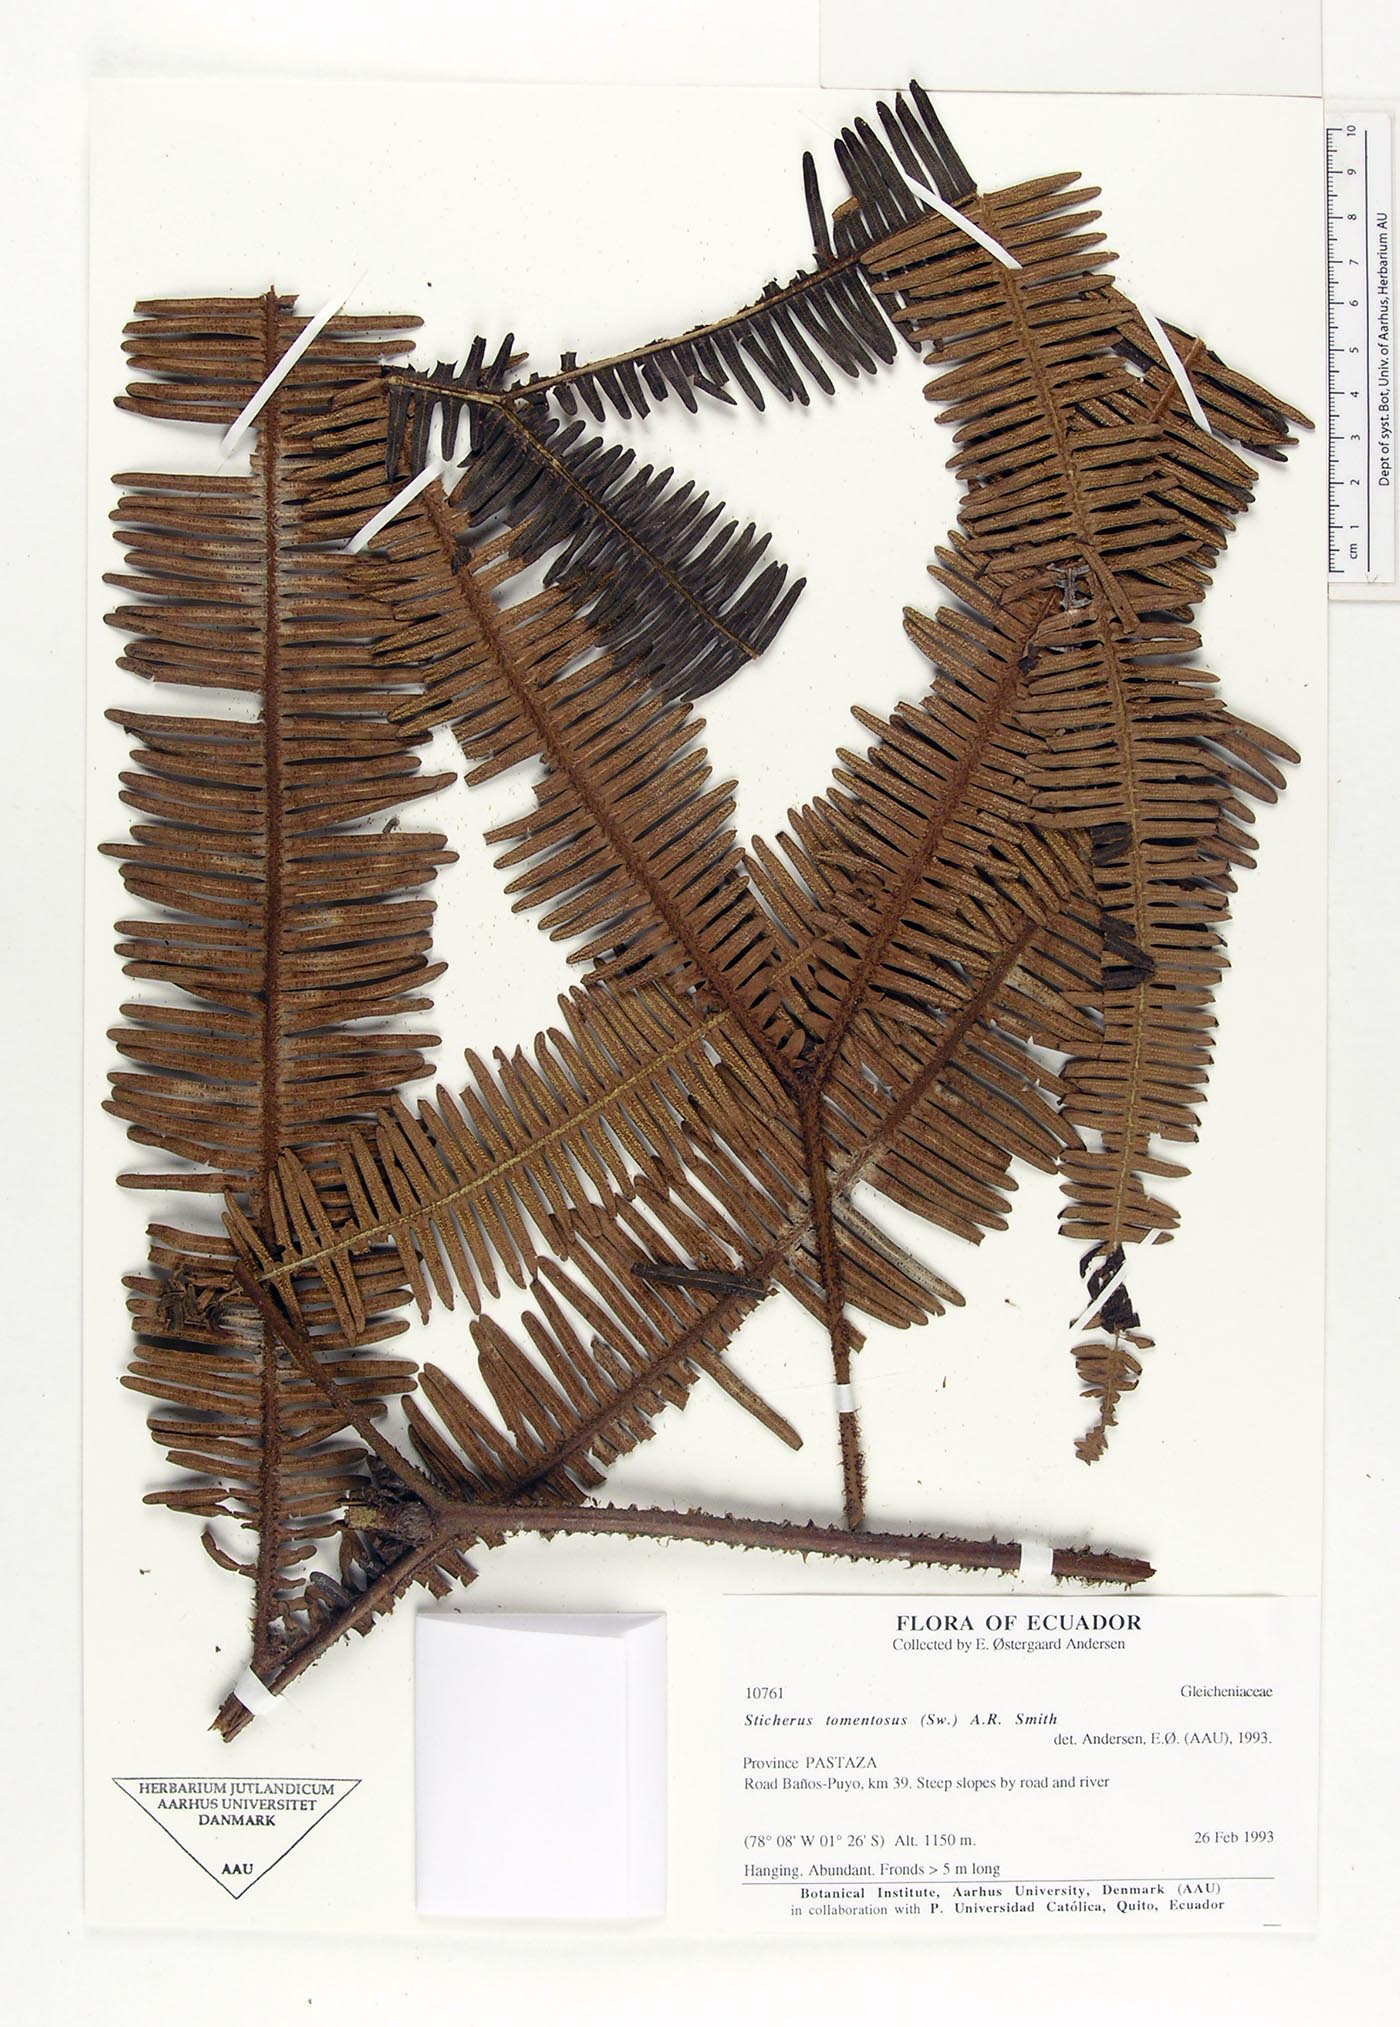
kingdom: Plantae
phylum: Tracheophyta
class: Polypodiopsida
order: Gleicheniales
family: Gleicheniaceae
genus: Sticherus
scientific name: Sticherus tomentosus
